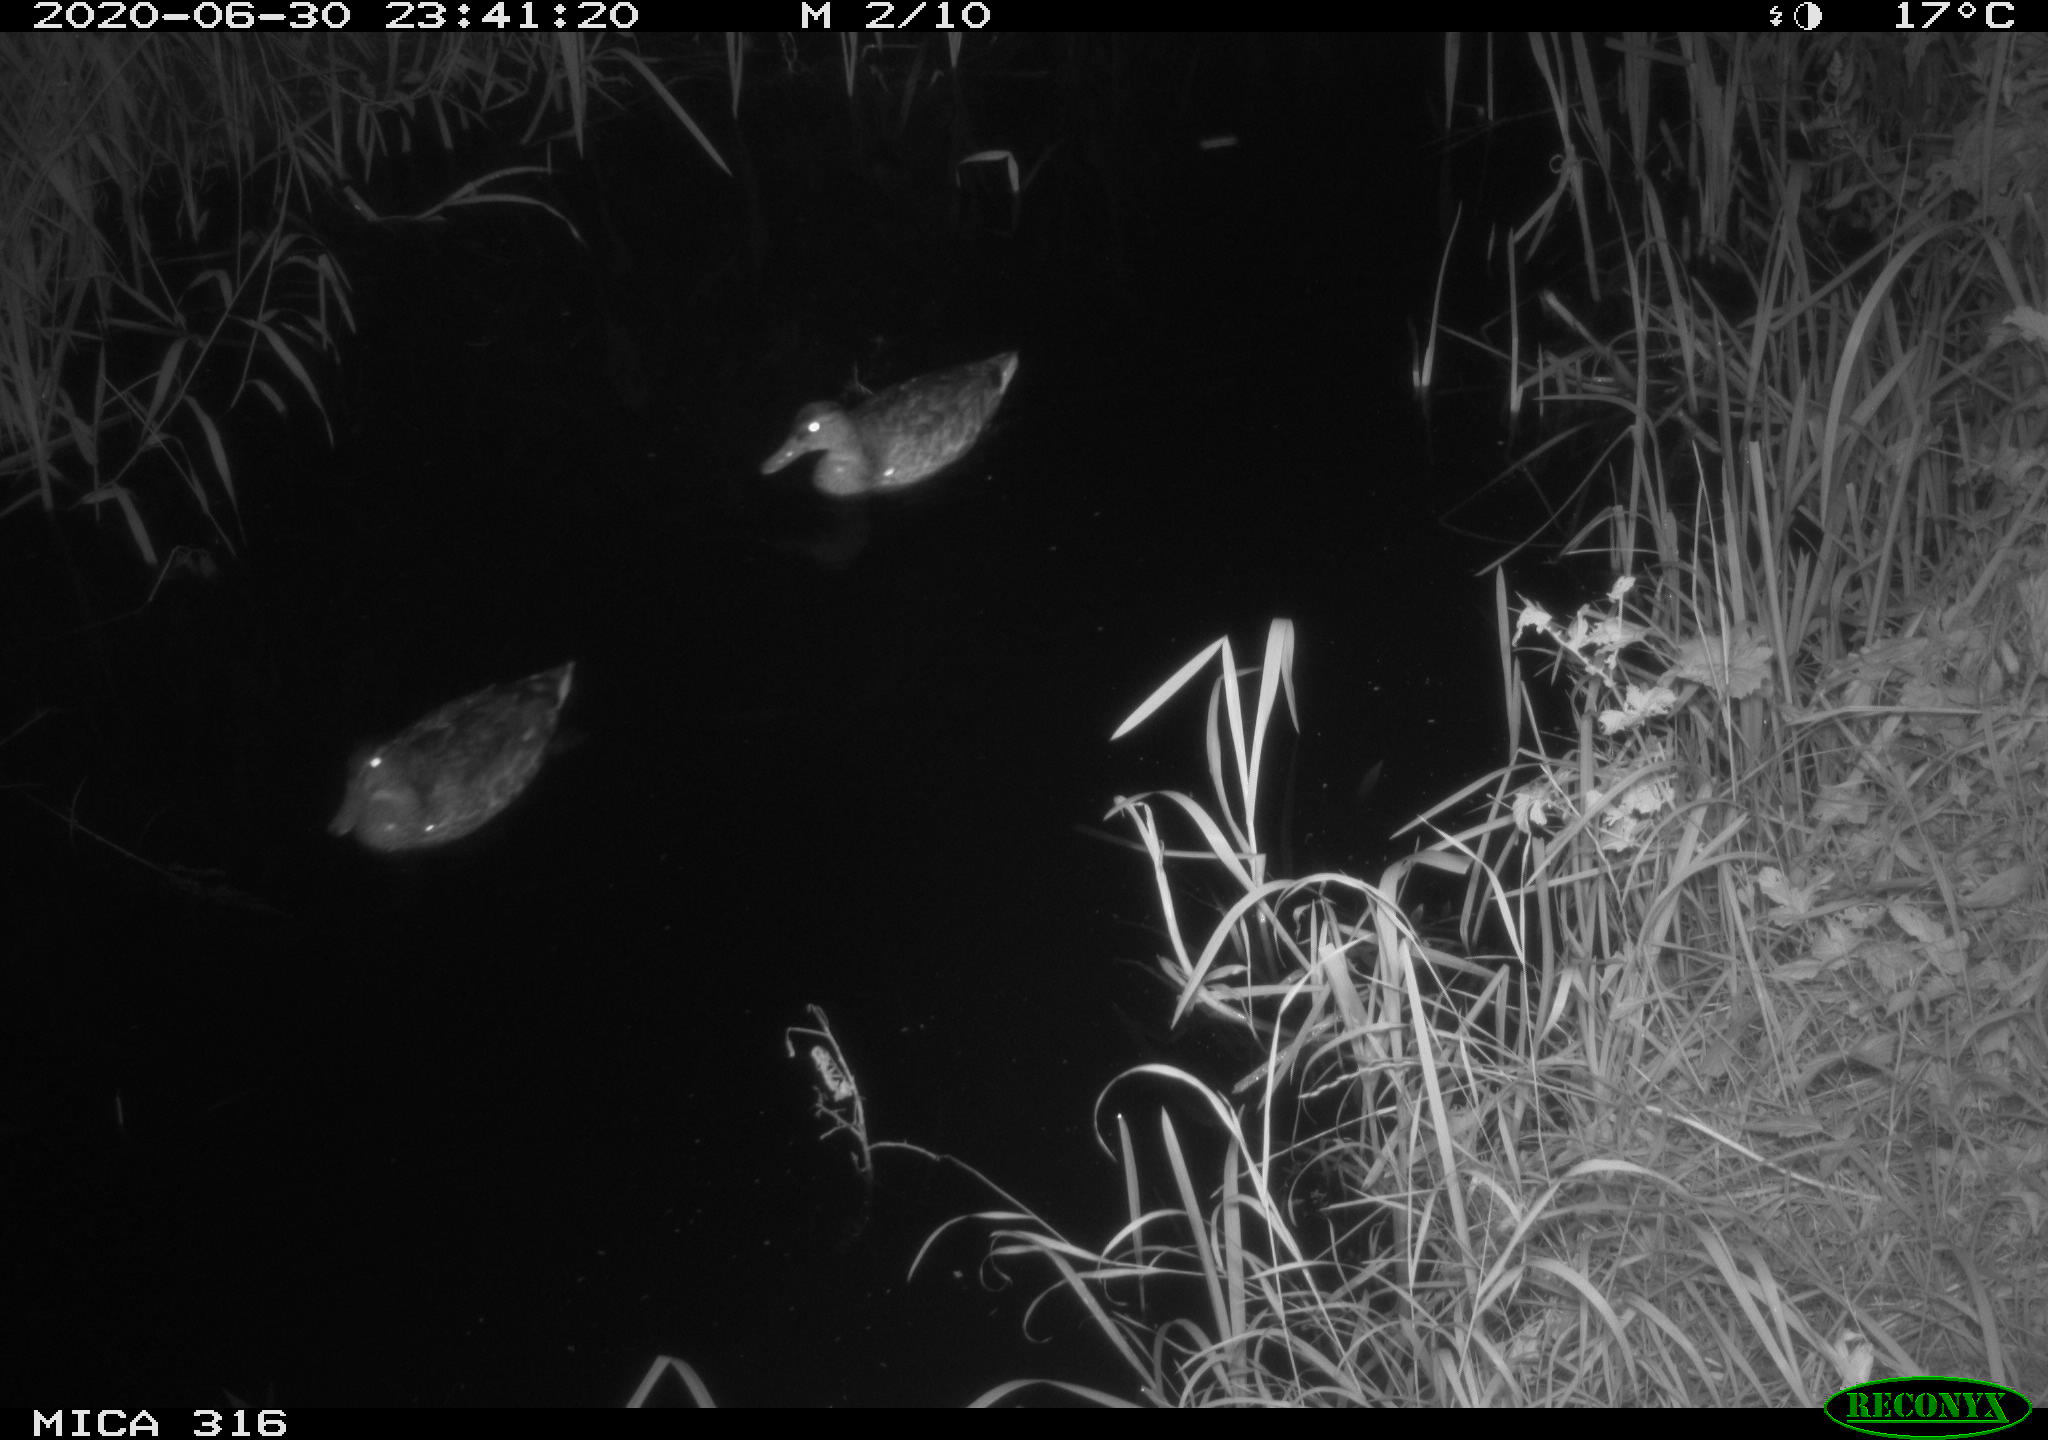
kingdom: Animalia
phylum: Chordata
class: Aves
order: Anseriformes
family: Anatidae
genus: Anas
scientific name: Anas platyrhynchos
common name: Mallard
